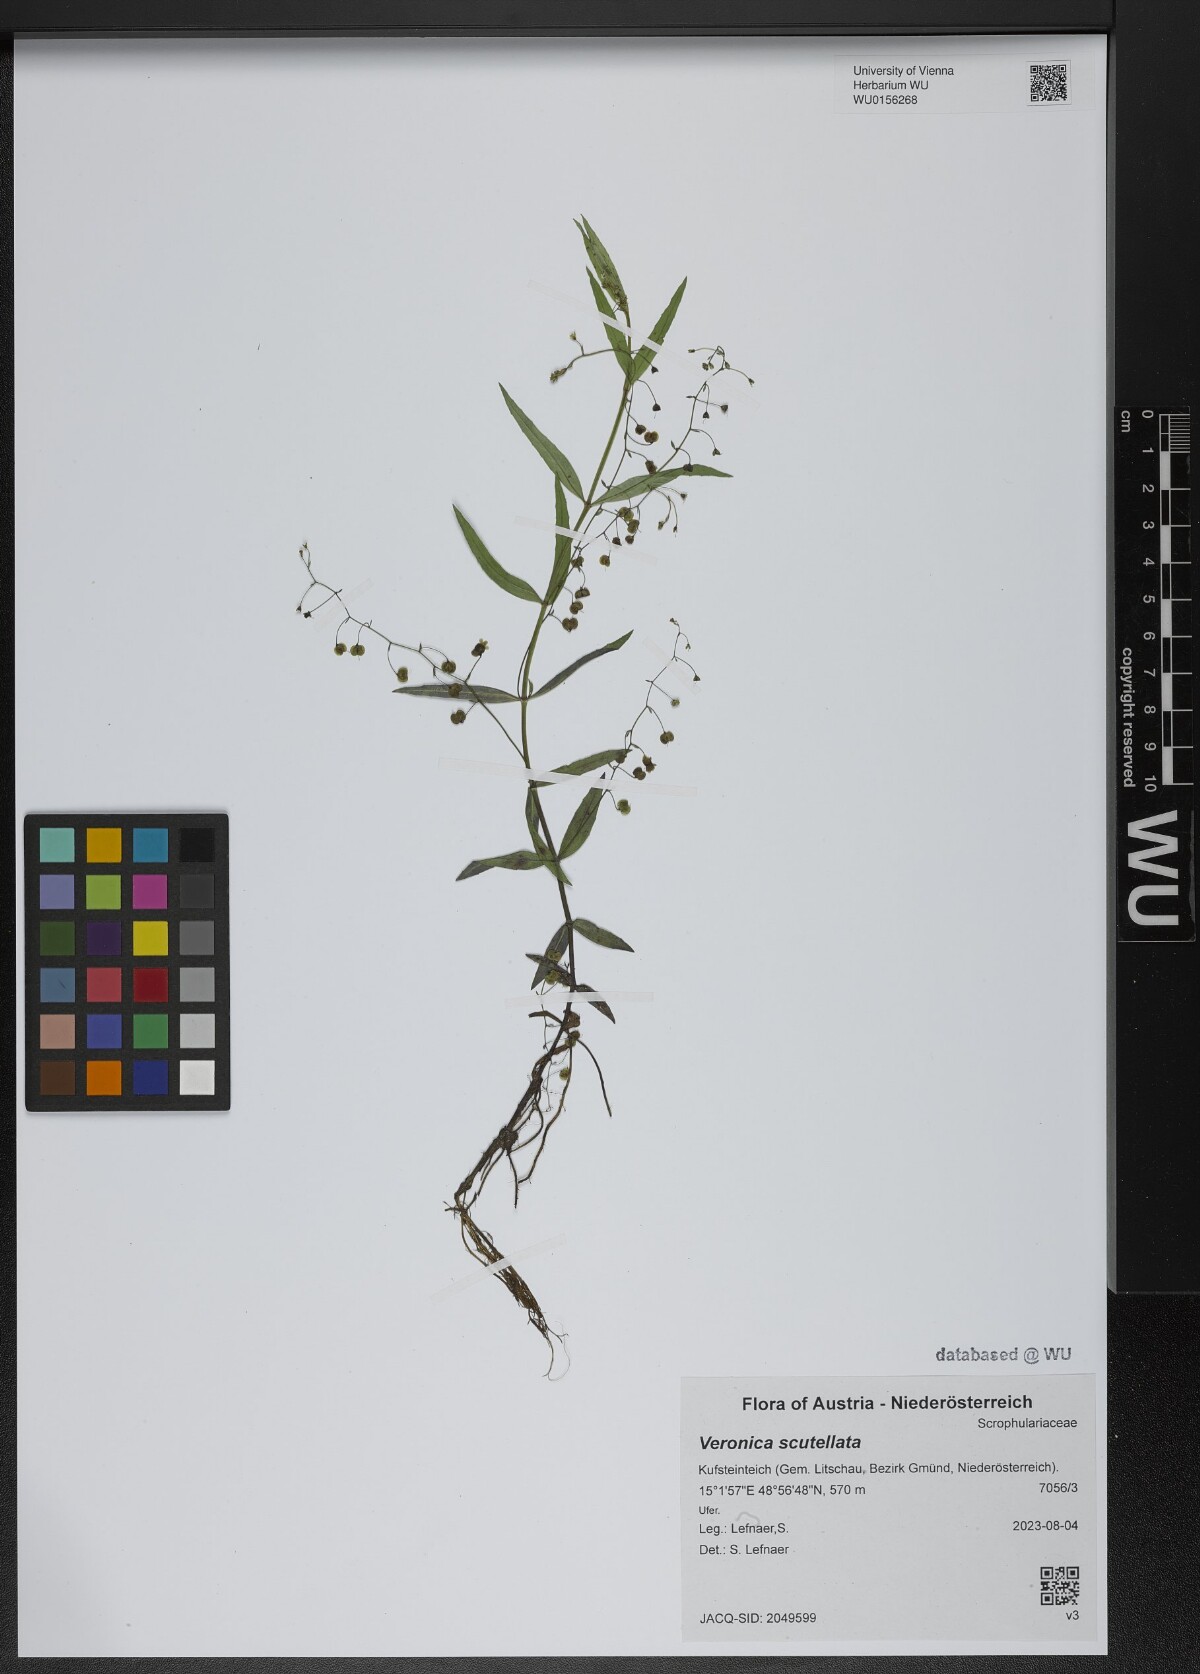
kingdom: Plantae
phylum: Tracheophyta
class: Magnoliopsida
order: Lamiales
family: Plantaginaceae
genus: Veronica
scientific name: Veronica scutellata
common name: Marsh speedwell
